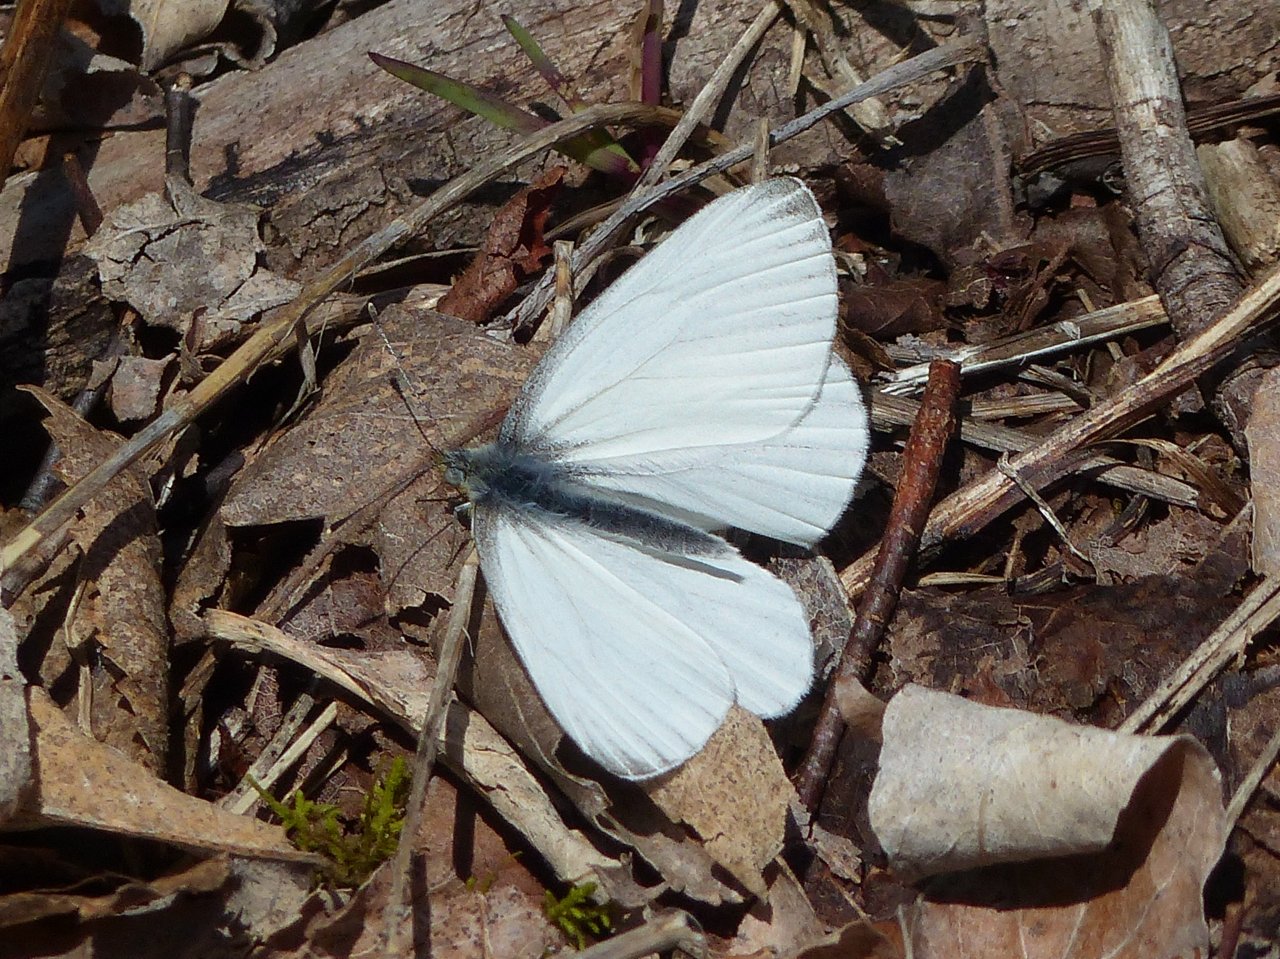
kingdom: Animalia
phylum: Arthropoda
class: Insecta
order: Lepidoptera
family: Pieridae
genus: Pieris
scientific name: Pieris oleracea
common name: Mustard White
